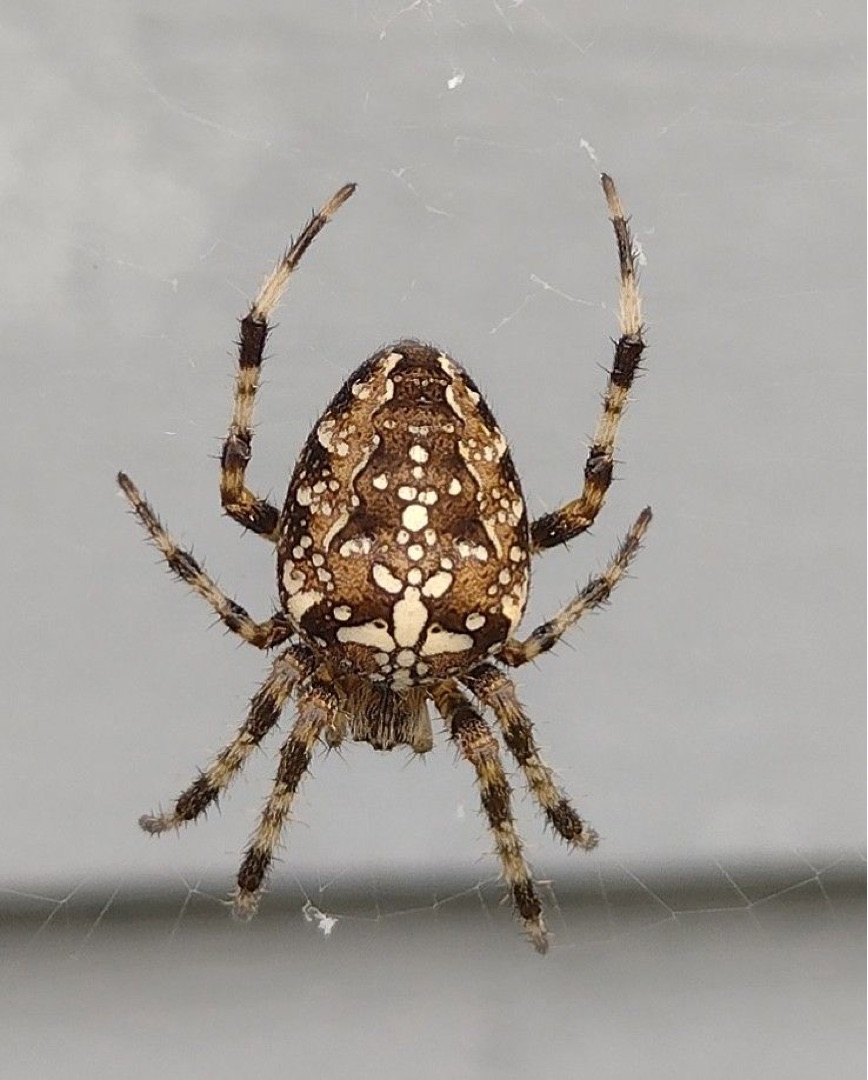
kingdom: Animalia
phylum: Arthropoda
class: Arachnida
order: Araneae
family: Araneidae
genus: Araneus
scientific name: Araneus diadematus
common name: Korsedderkop
